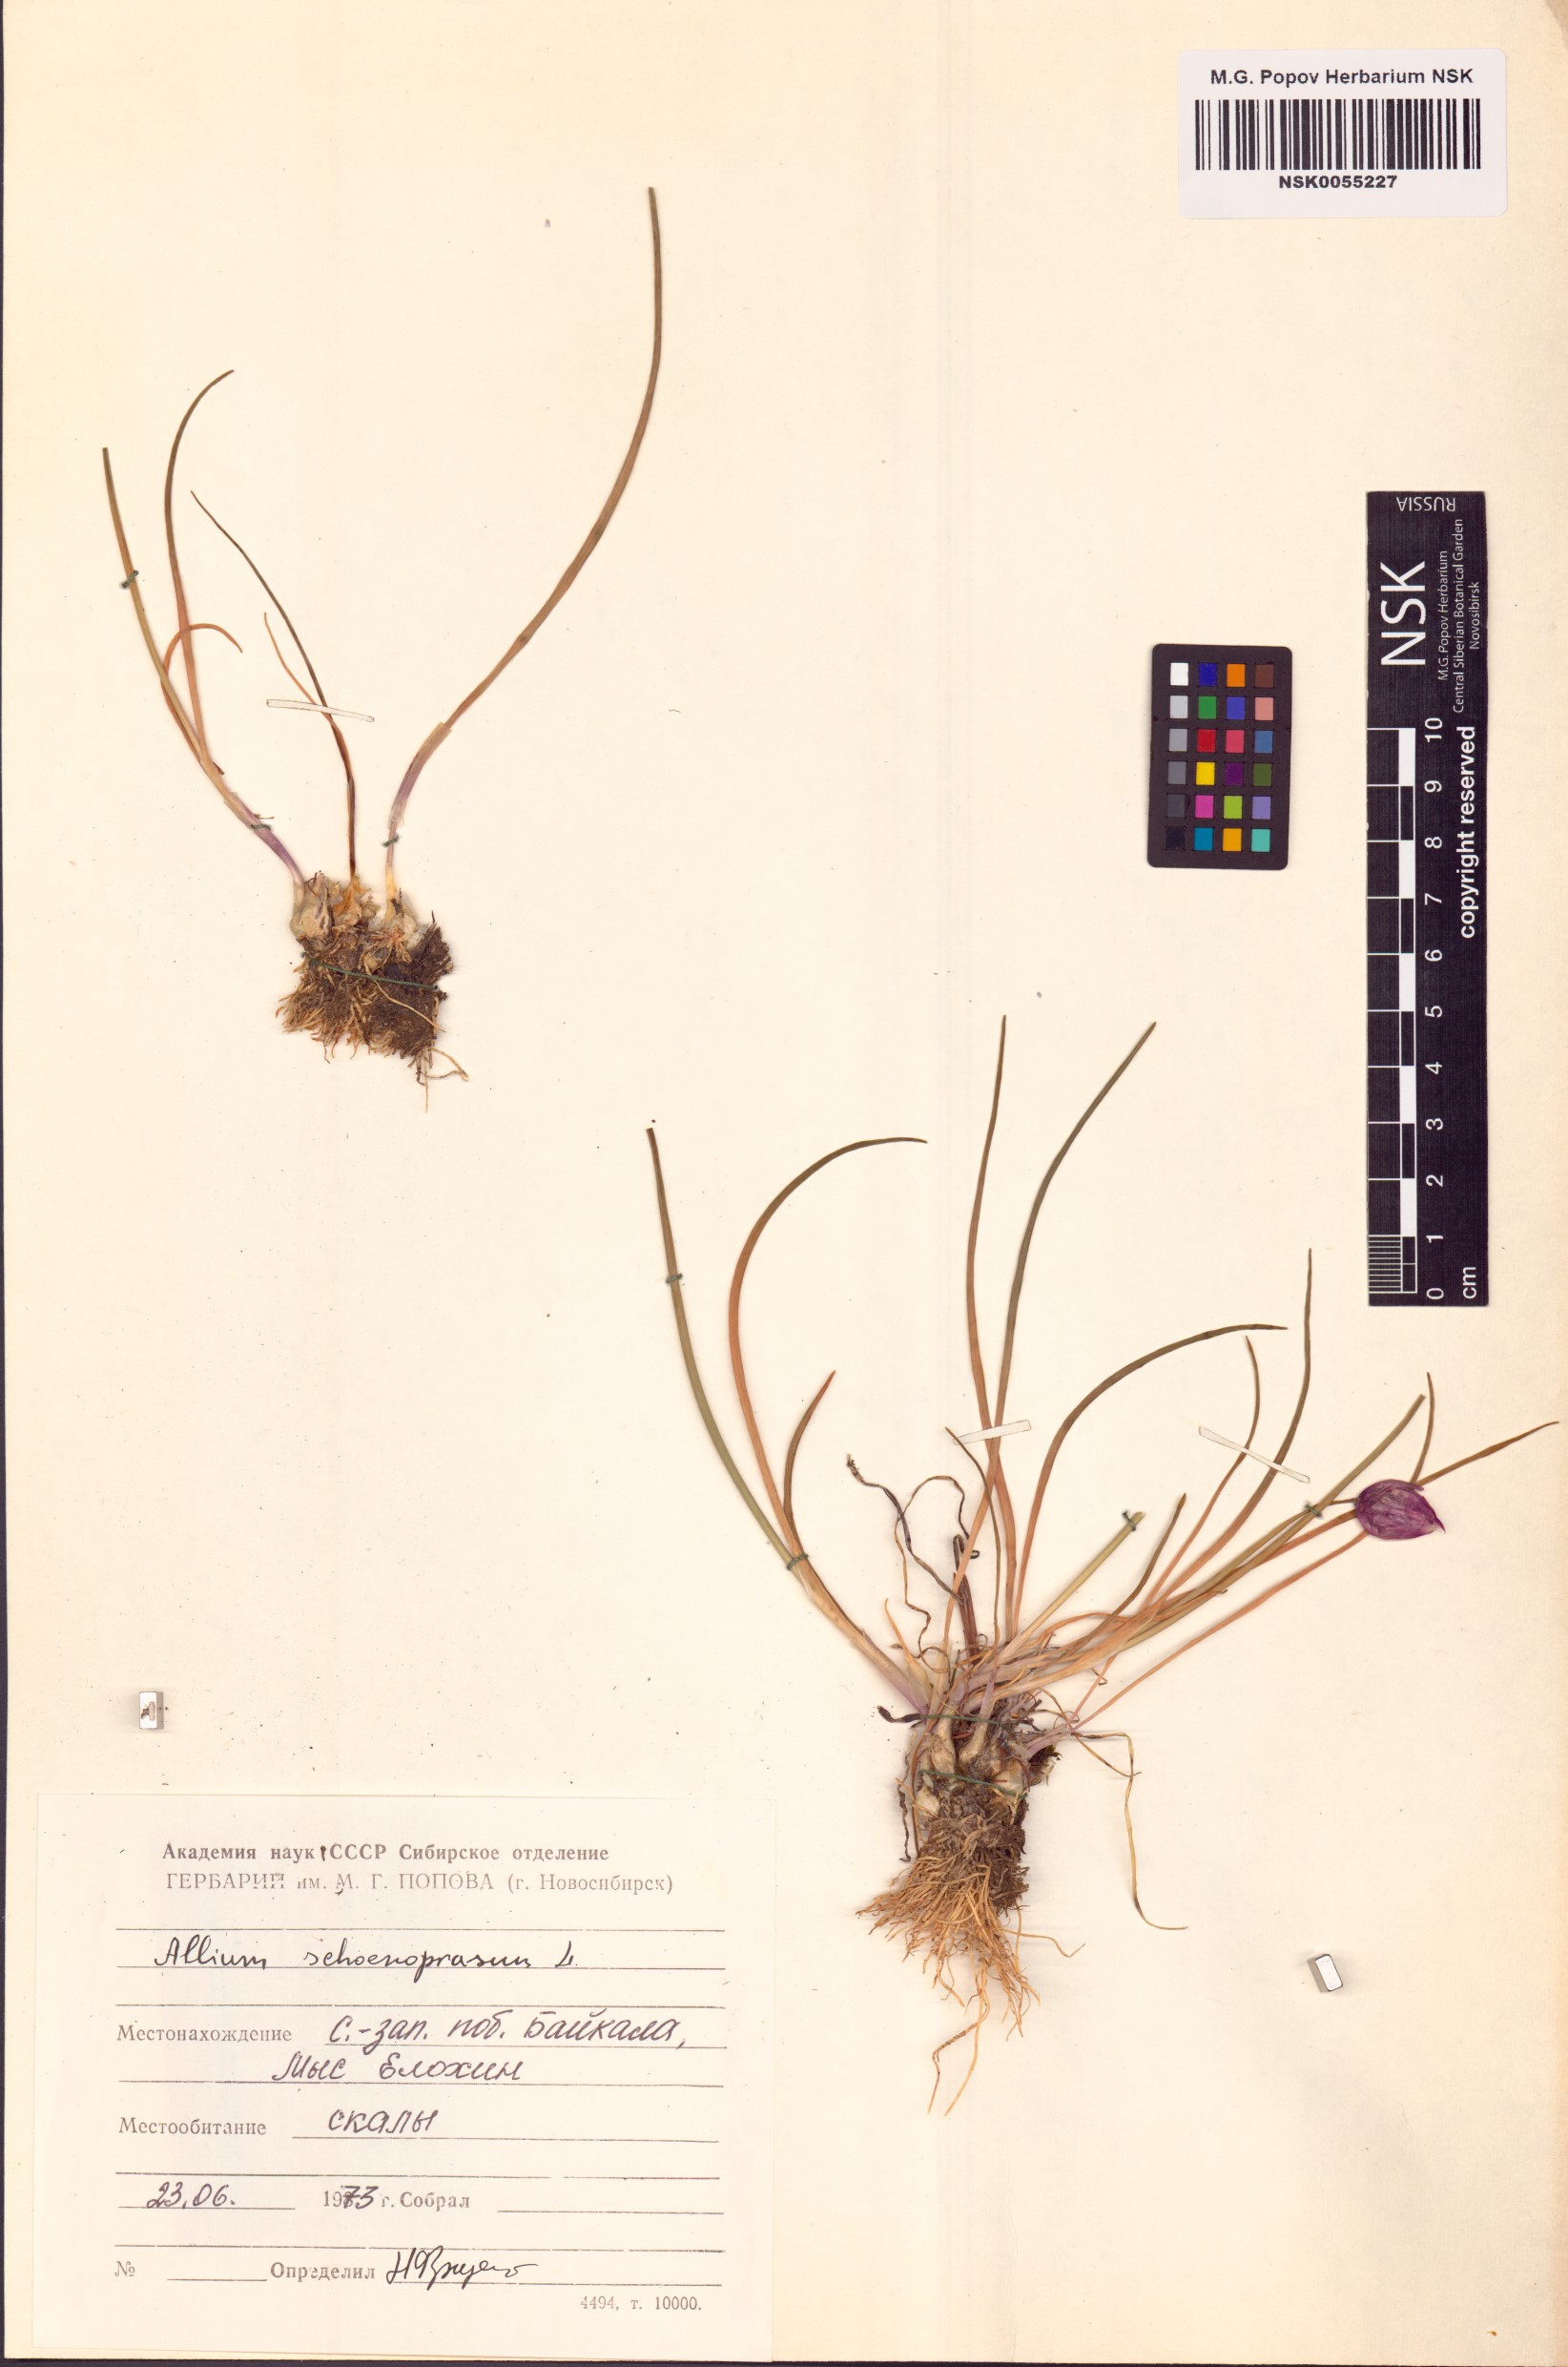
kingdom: Plantae
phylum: Tracheophyta
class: Liliopsida
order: Asparagales
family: Amaryllidaceae
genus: Allium
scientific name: Allium schoenoprasum
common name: Chives
